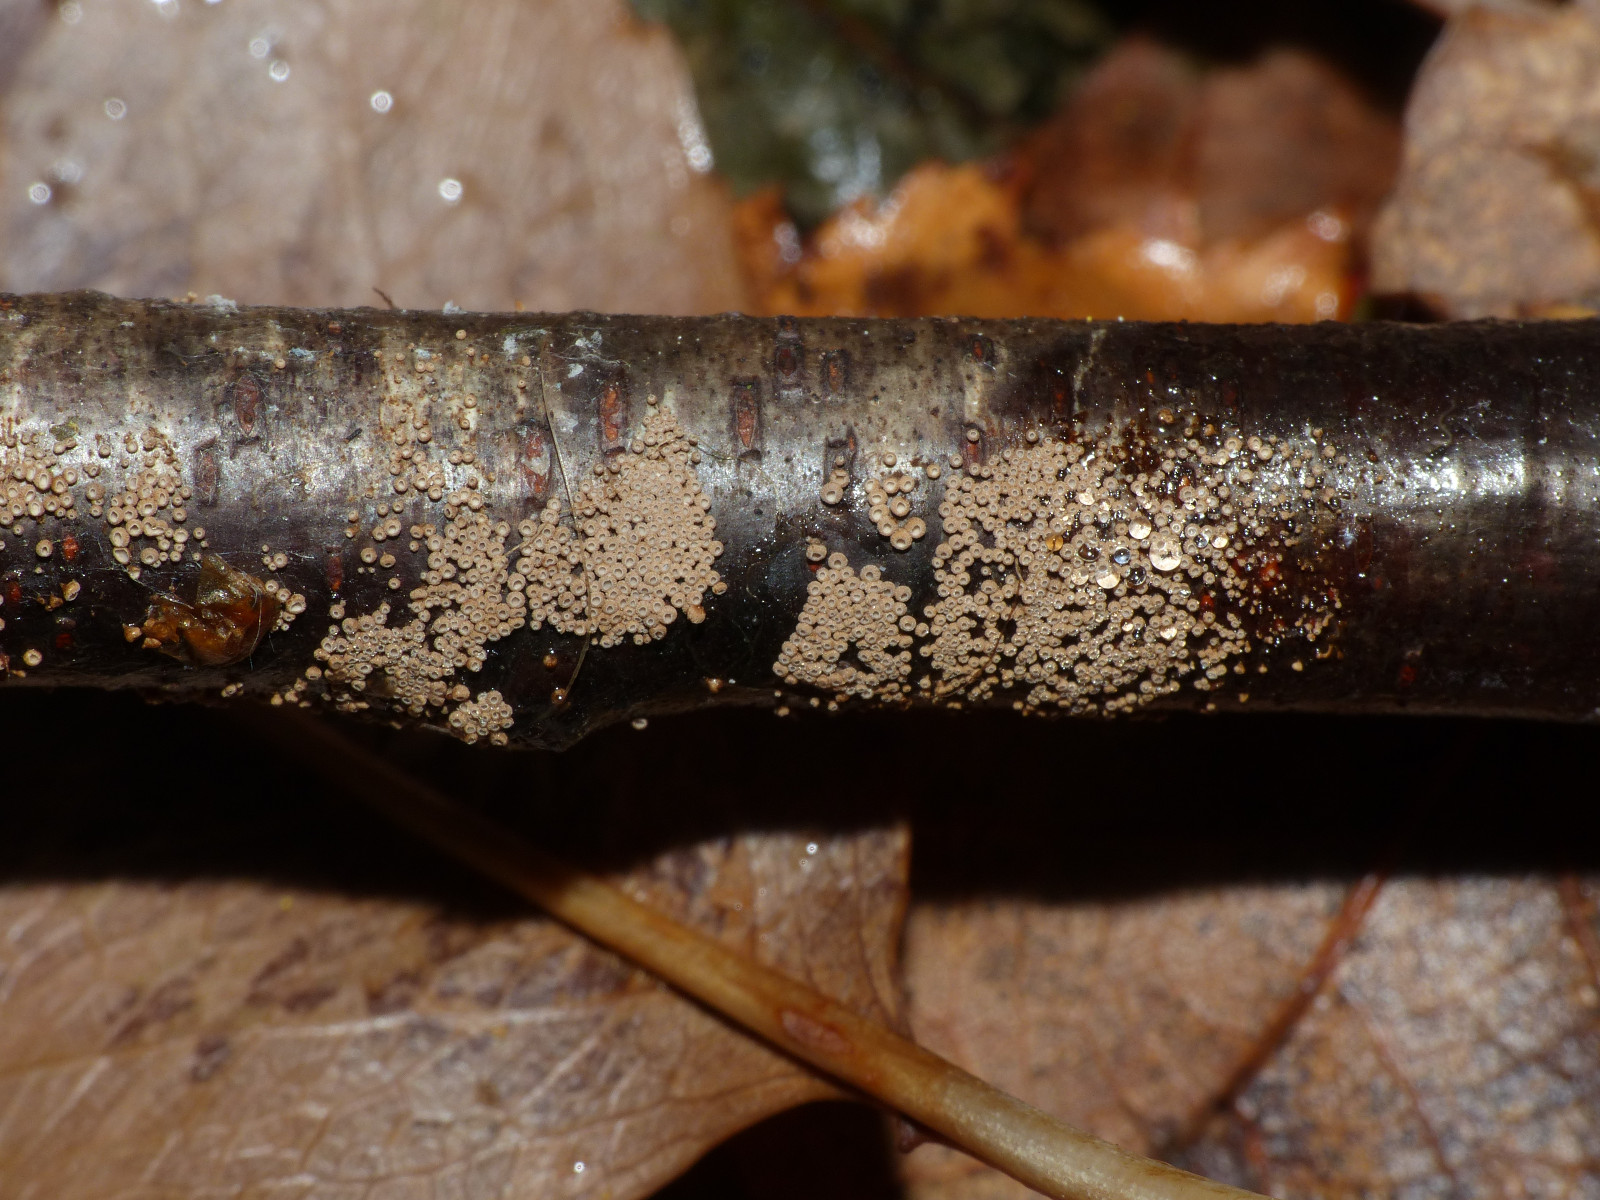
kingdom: Fungi
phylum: Basidiomycota
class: Agaricomycetes
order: Agaricales
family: Niaceae
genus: Merismodes
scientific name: Merismodes anomala
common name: almindelig læderskål
